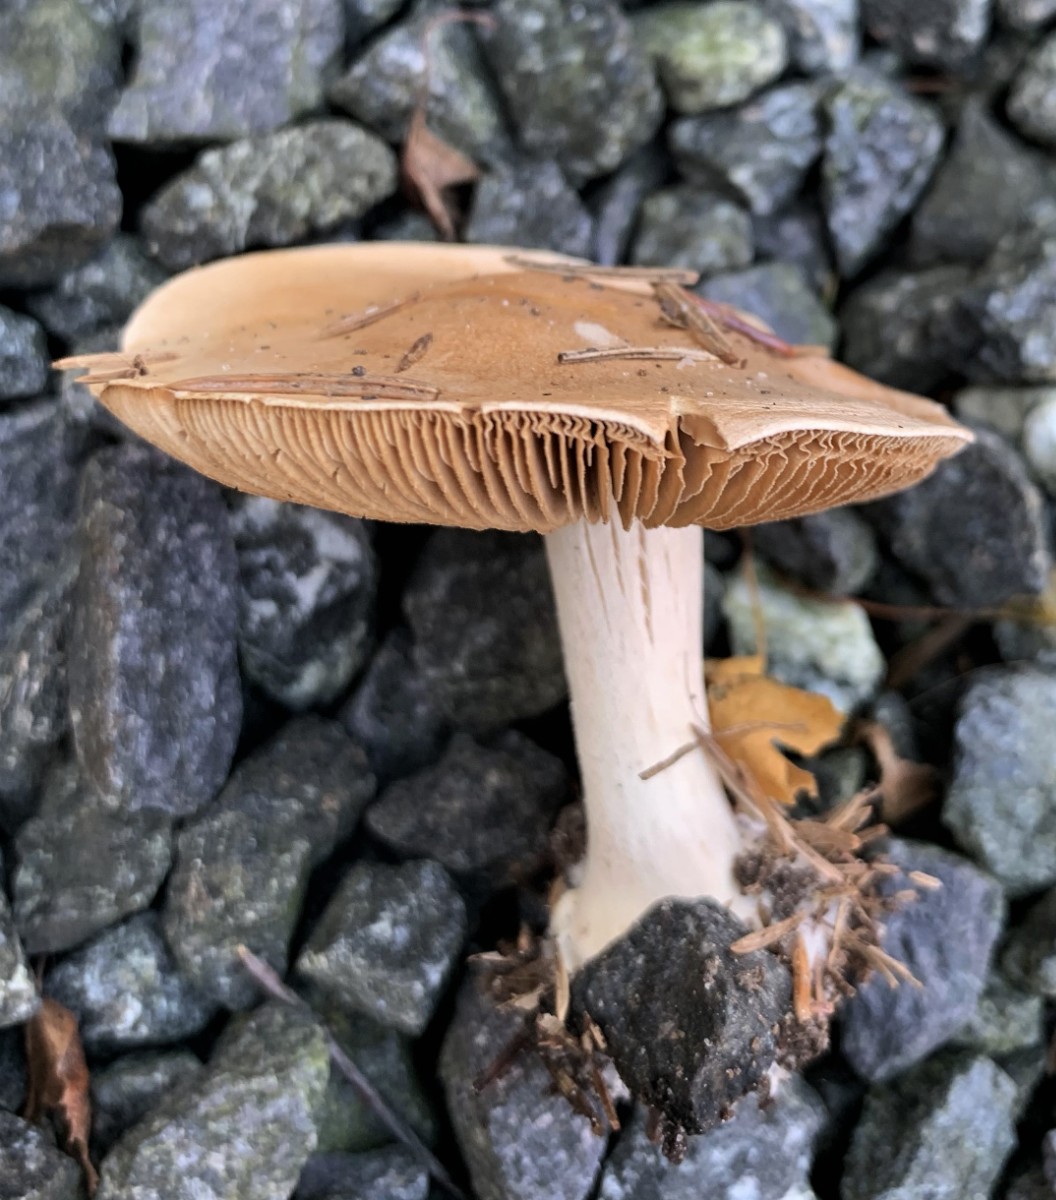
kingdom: Fungi
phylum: Basidiomycota
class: Agaricomycetes
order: Agaricales
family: Hymenogastraceae
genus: Hebeloma
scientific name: Hebeloma
